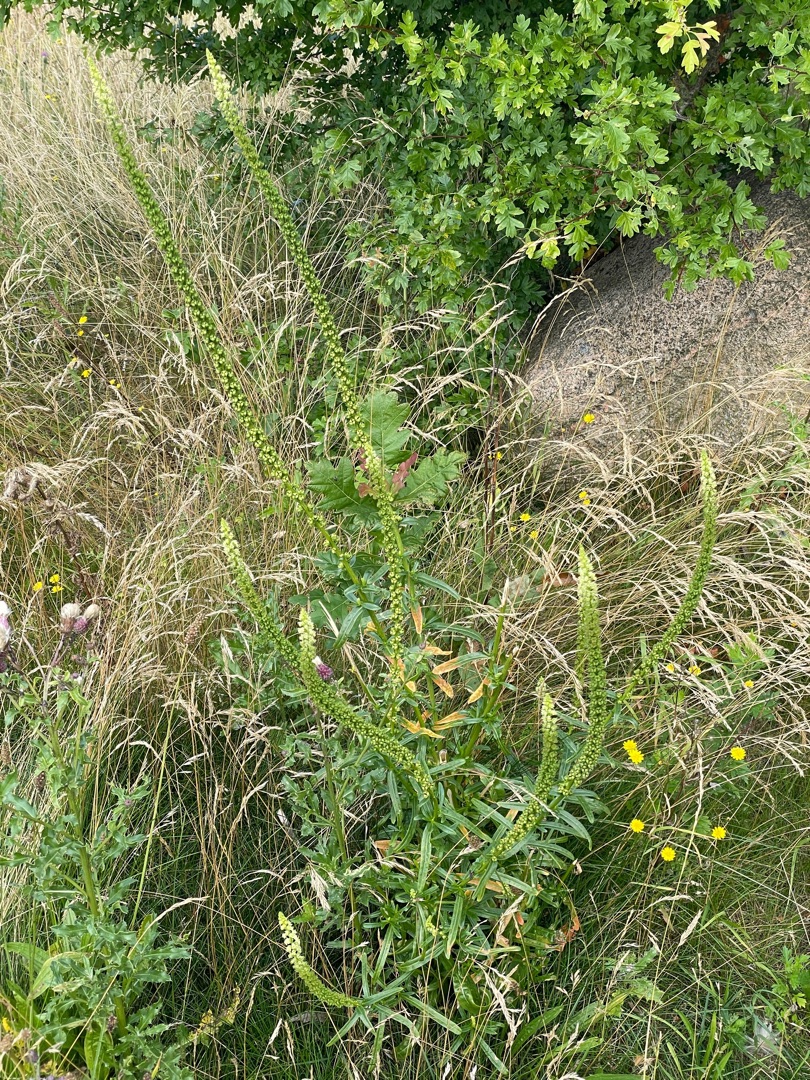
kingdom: Plantae
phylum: Tracheophyta
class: Magnoliopsida
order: Brassicales
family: Resedaceae
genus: Reseda
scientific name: Reseda luteola
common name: Farve-reseda
